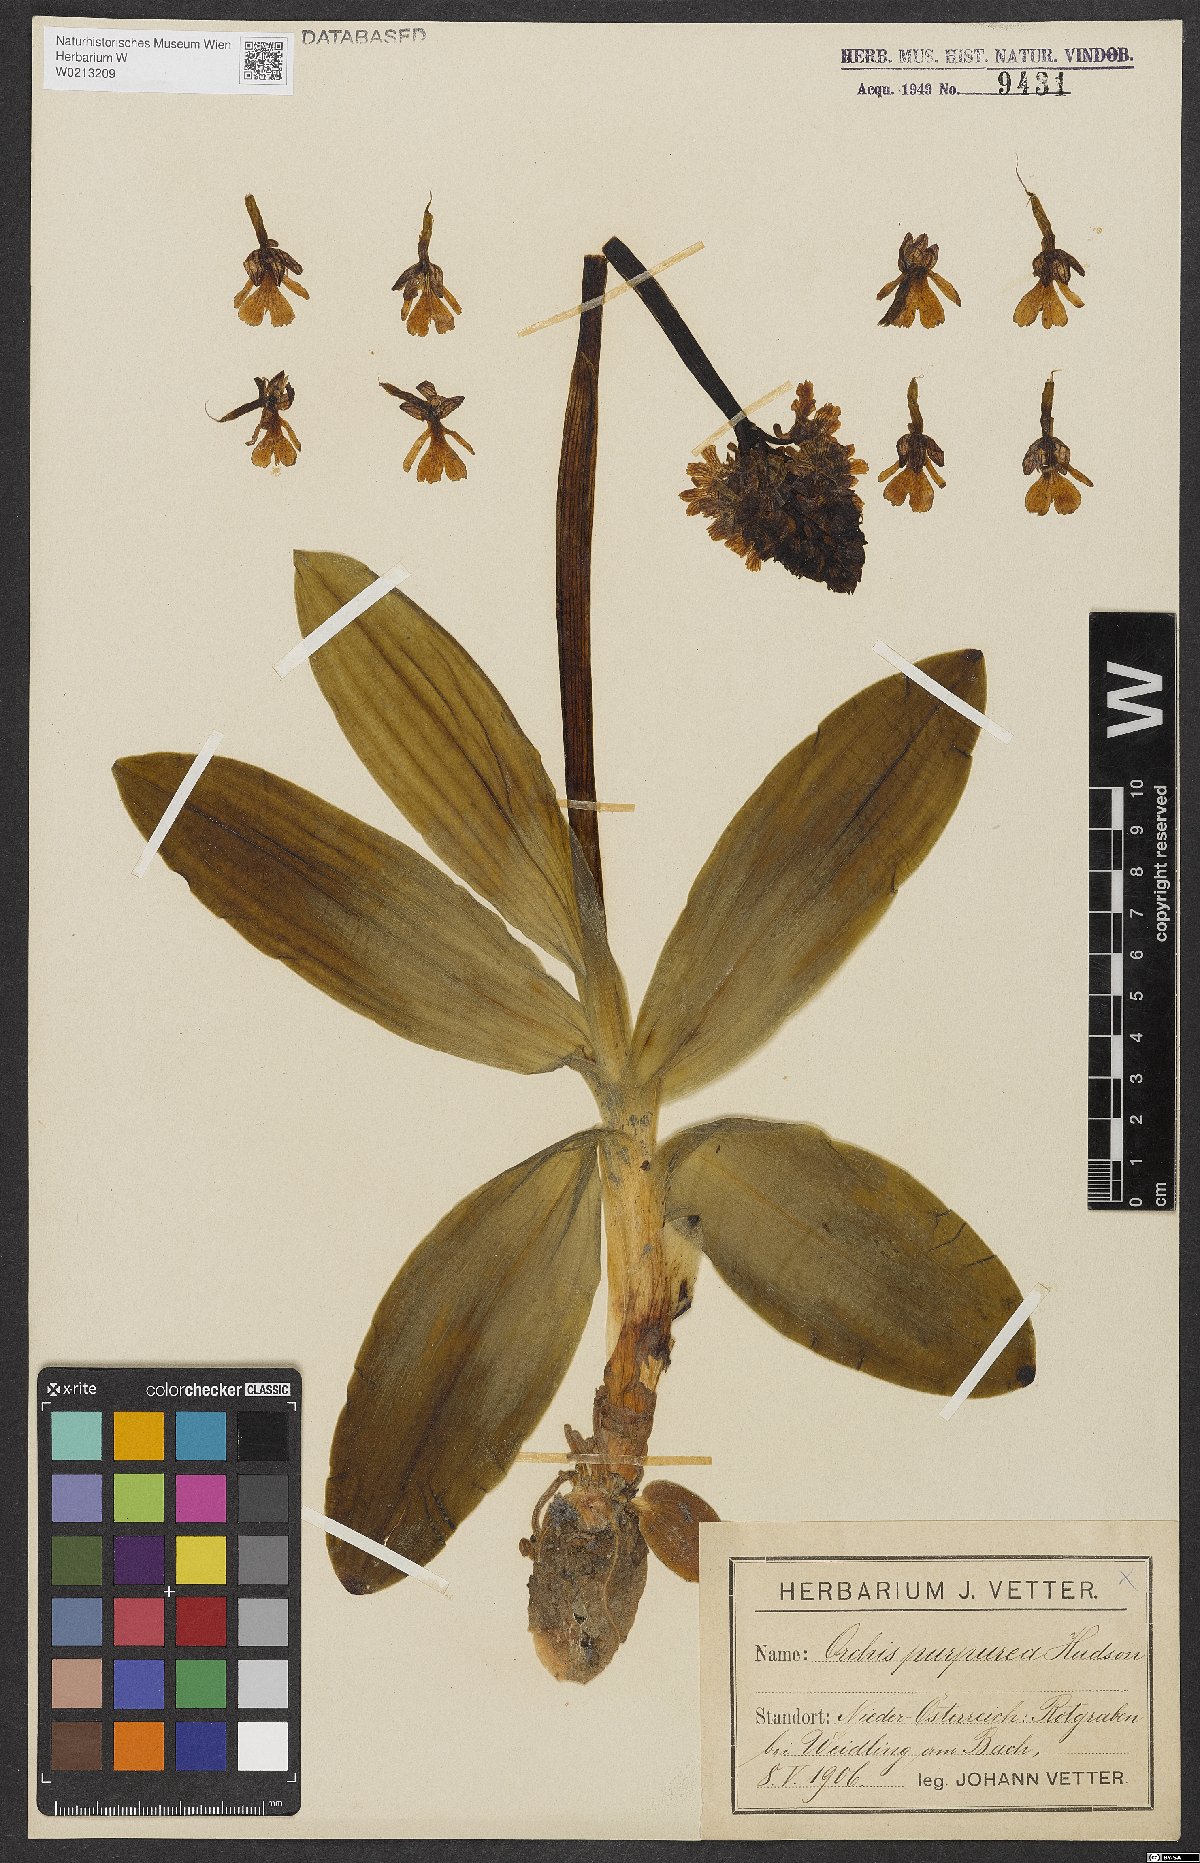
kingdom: Plantae
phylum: Tracheophyta
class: Liliopsida
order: Asparagales
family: Orchidaceae
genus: Orchis
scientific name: Orchis purpurea
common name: Lady orchid
